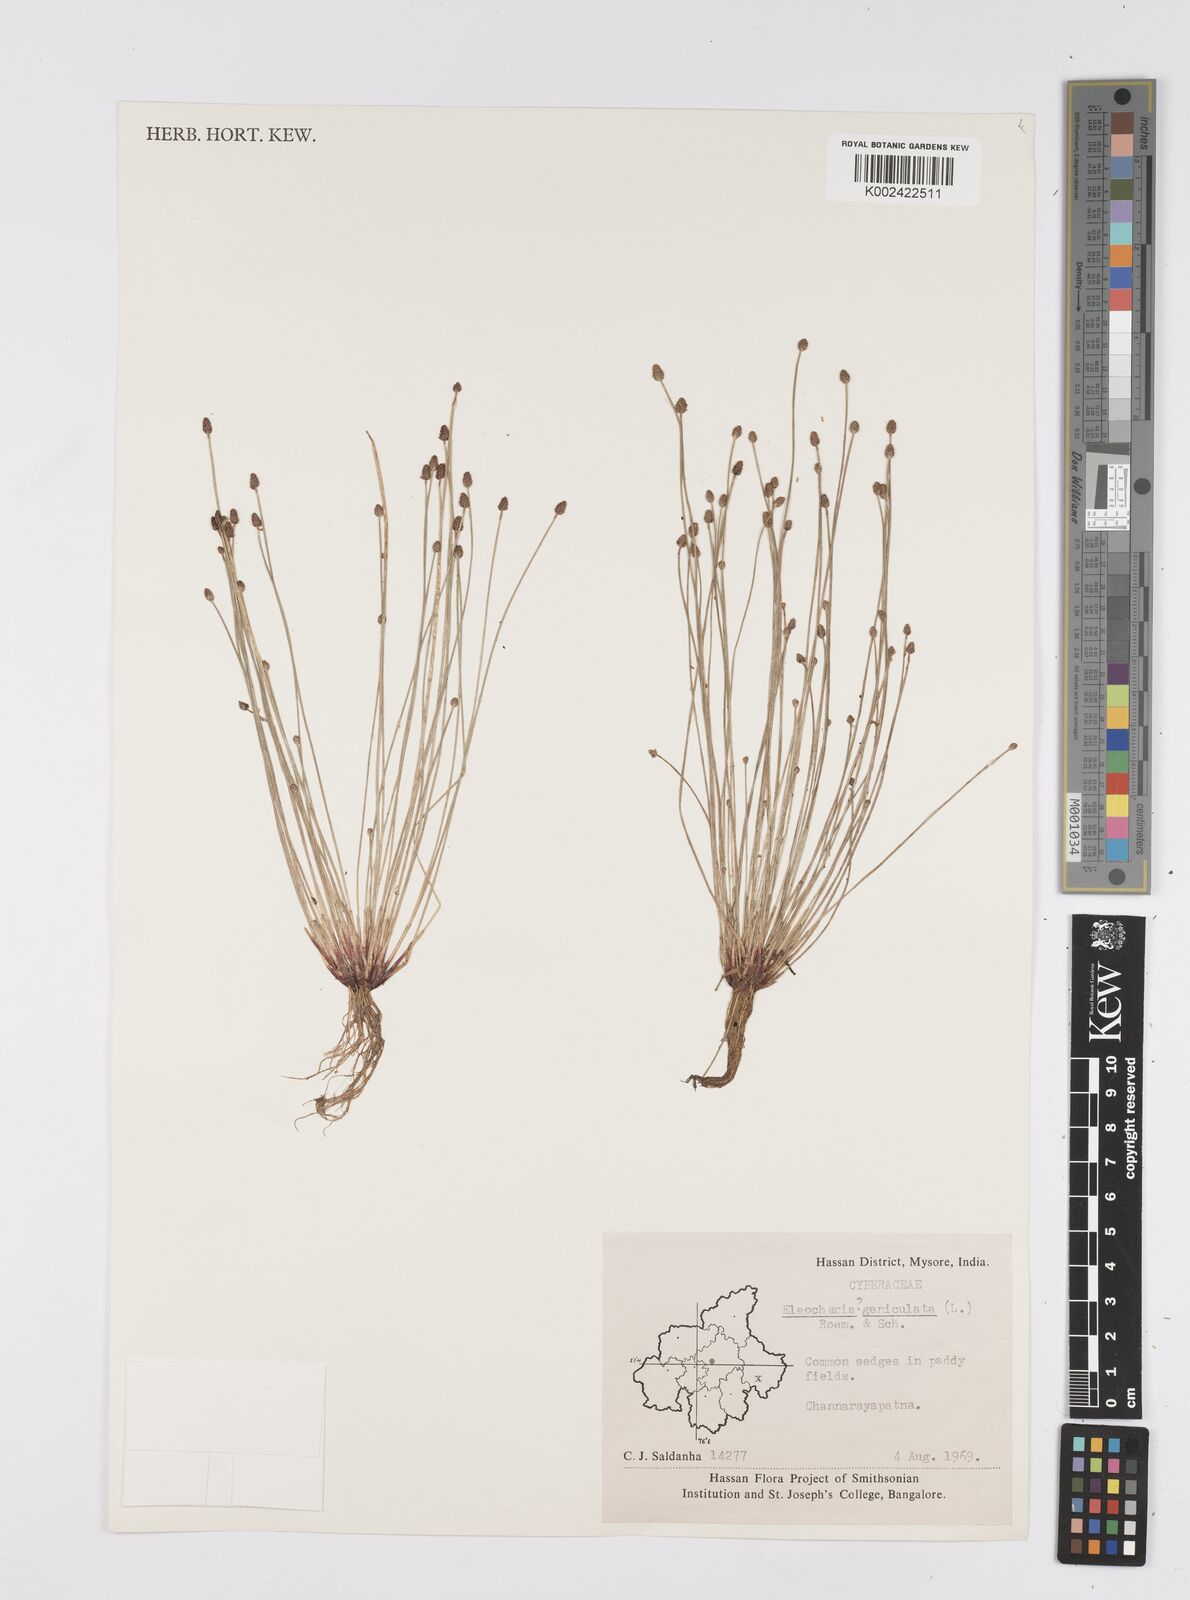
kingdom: Plantae
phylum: Tracheophyta
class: Liliopsida
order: Poales
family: Cyperaceae
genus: Eleocharis
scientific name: Eleocharis geniculata
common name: Canada spikesedge
